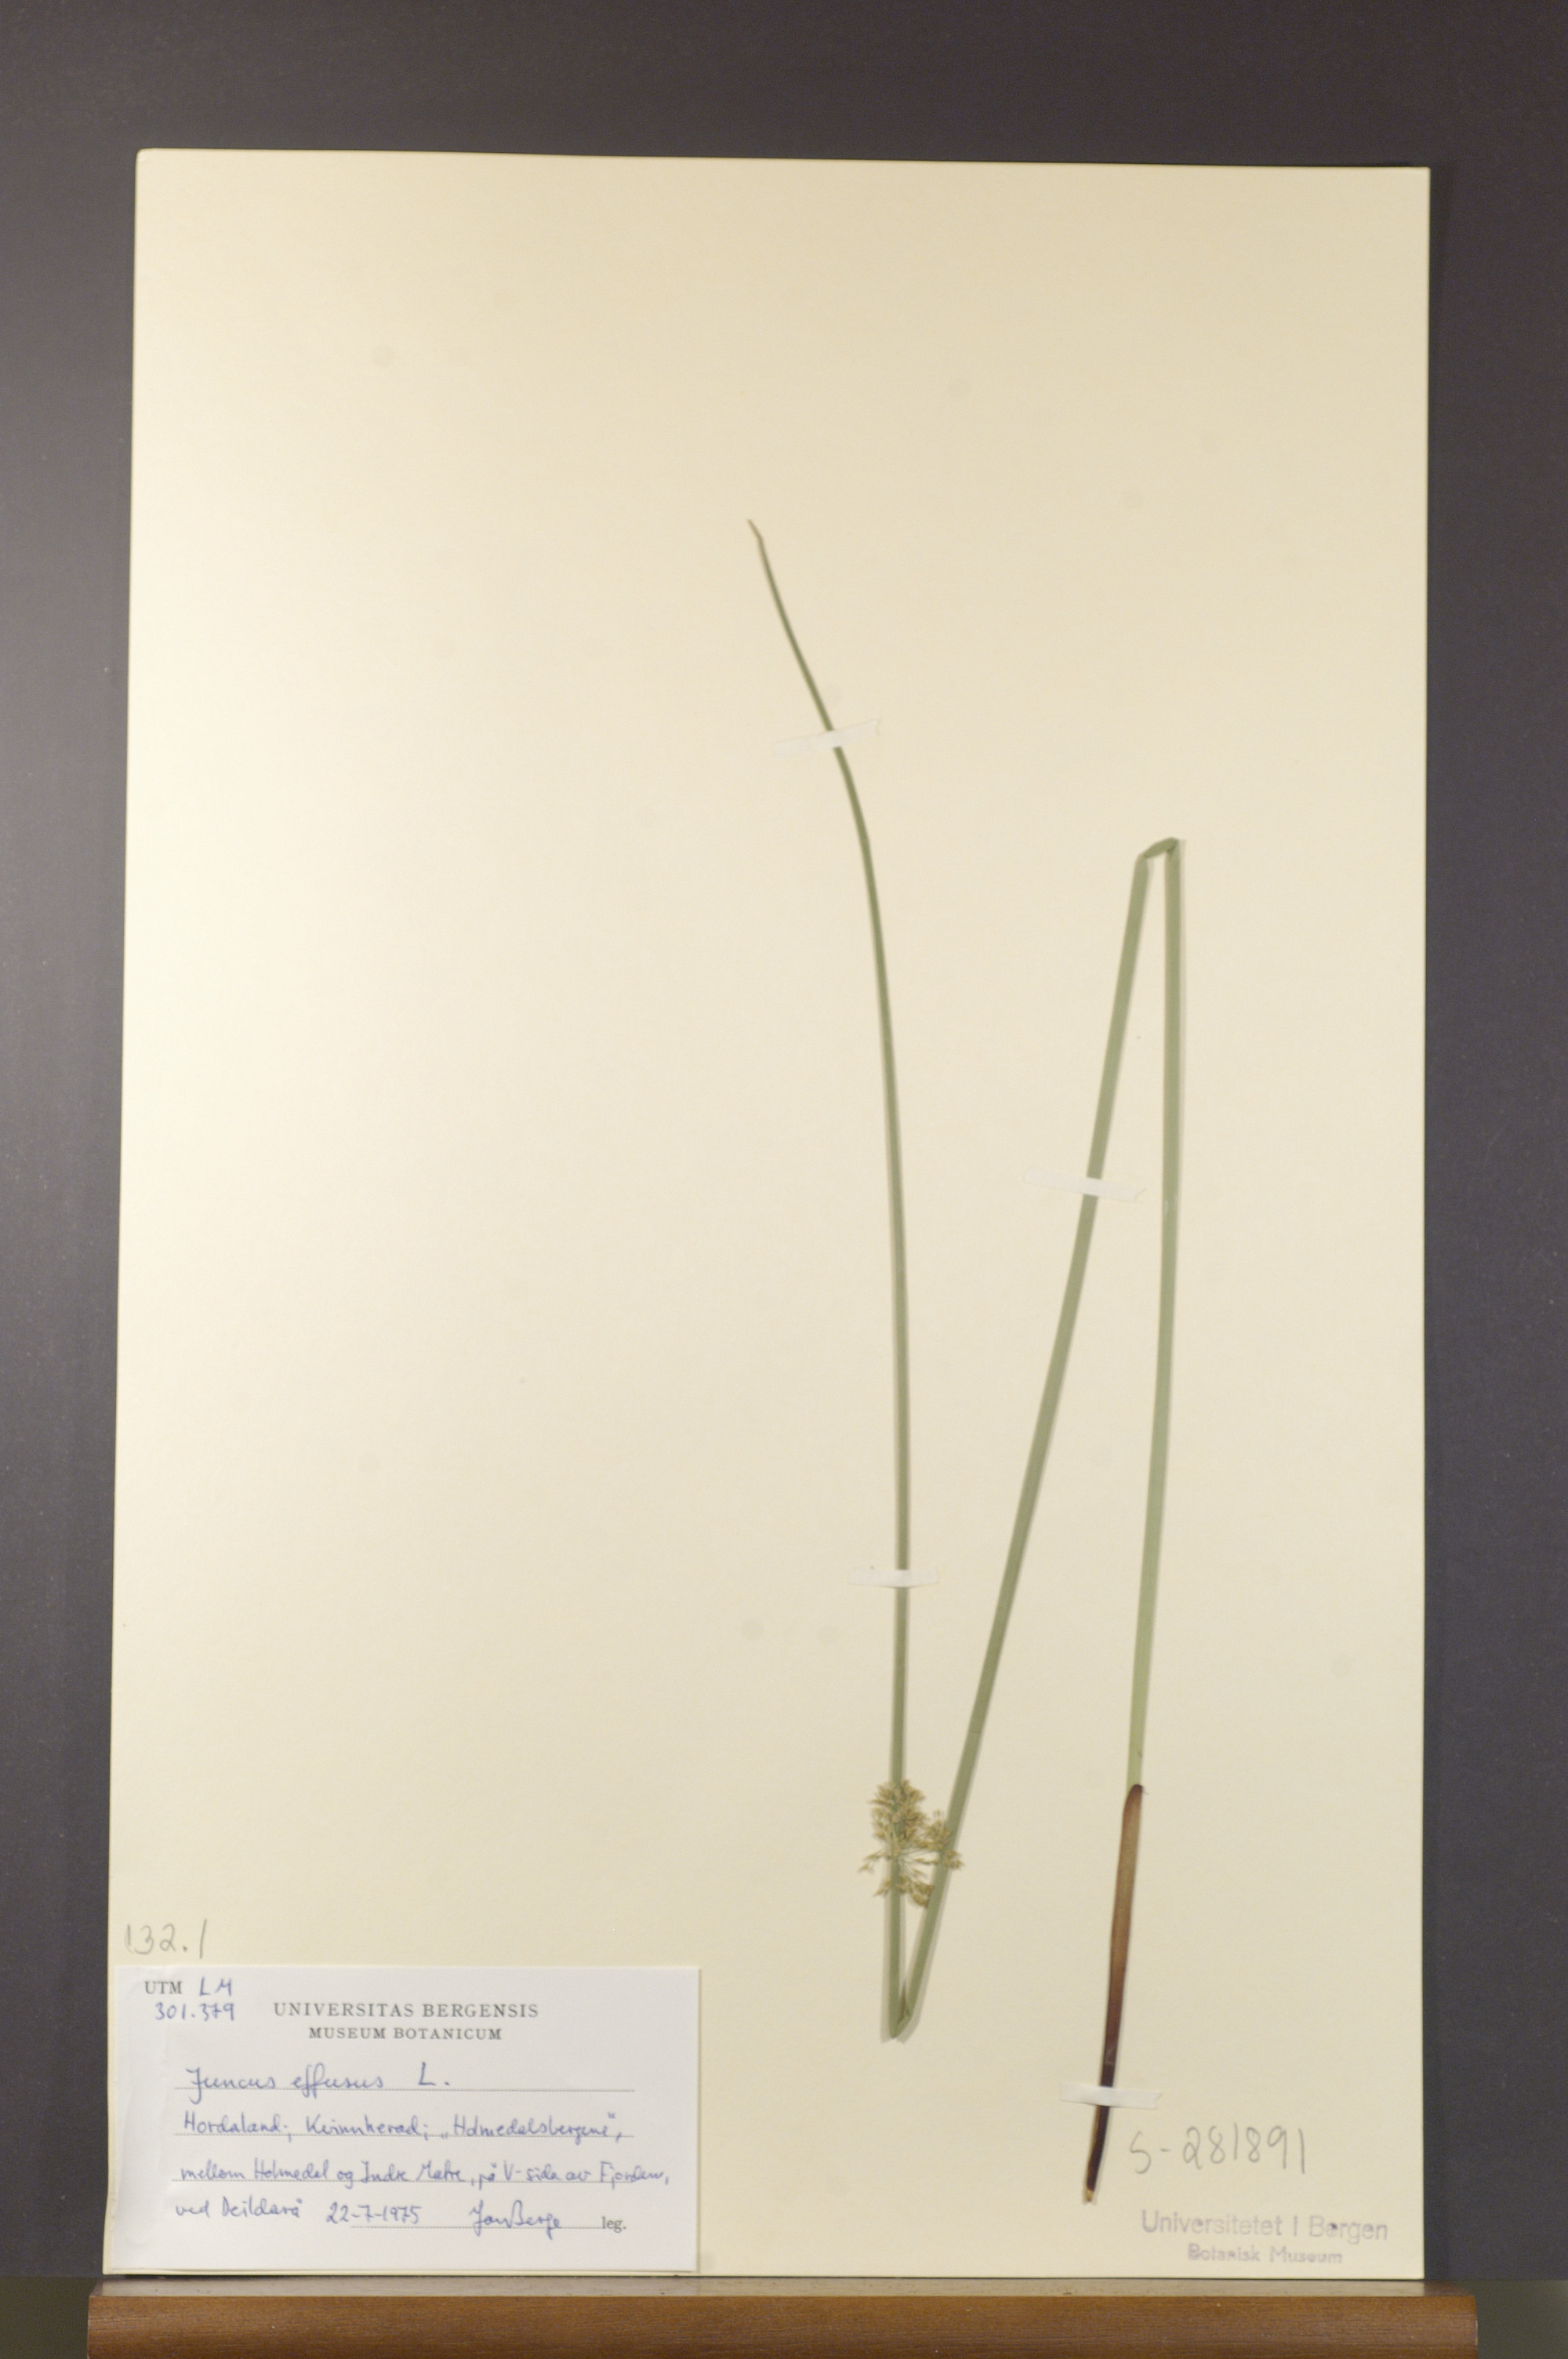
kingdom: Plantae
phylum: Tracheophyta
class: Liliopsida
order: Poales
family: Juncaceae
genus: Juncus
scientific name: Juncus effusus
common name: Soft rush
